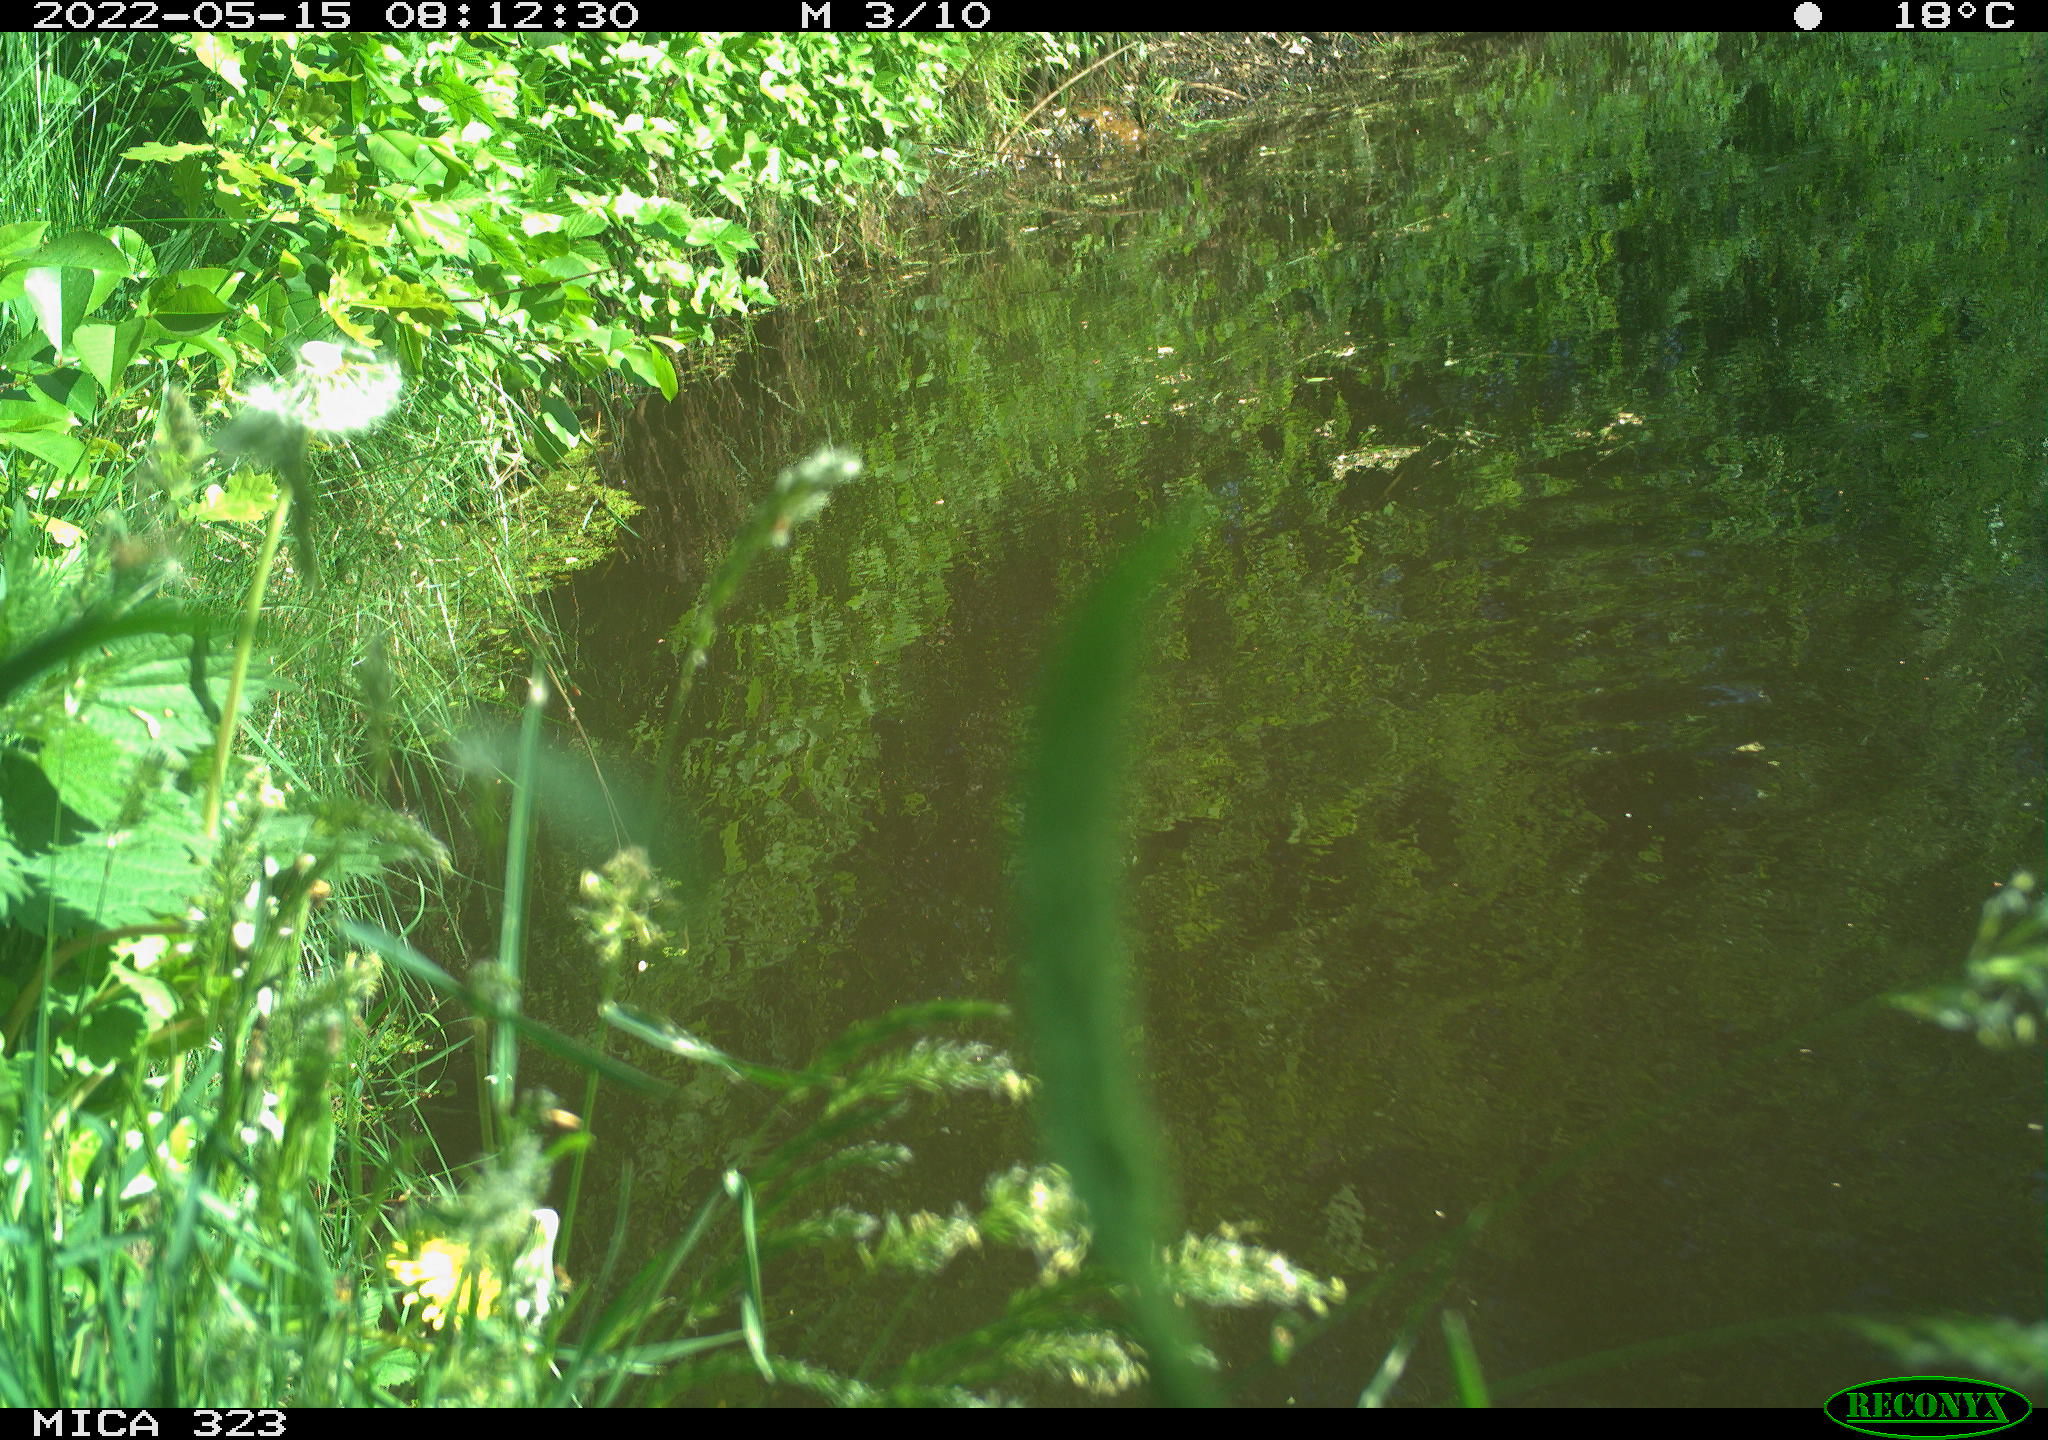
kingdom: Animalia
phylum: Chordata
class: Aves
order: Anseriformes
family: Anatidae
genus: Anas
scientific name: Anas platyrhynchos
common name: Mallard
